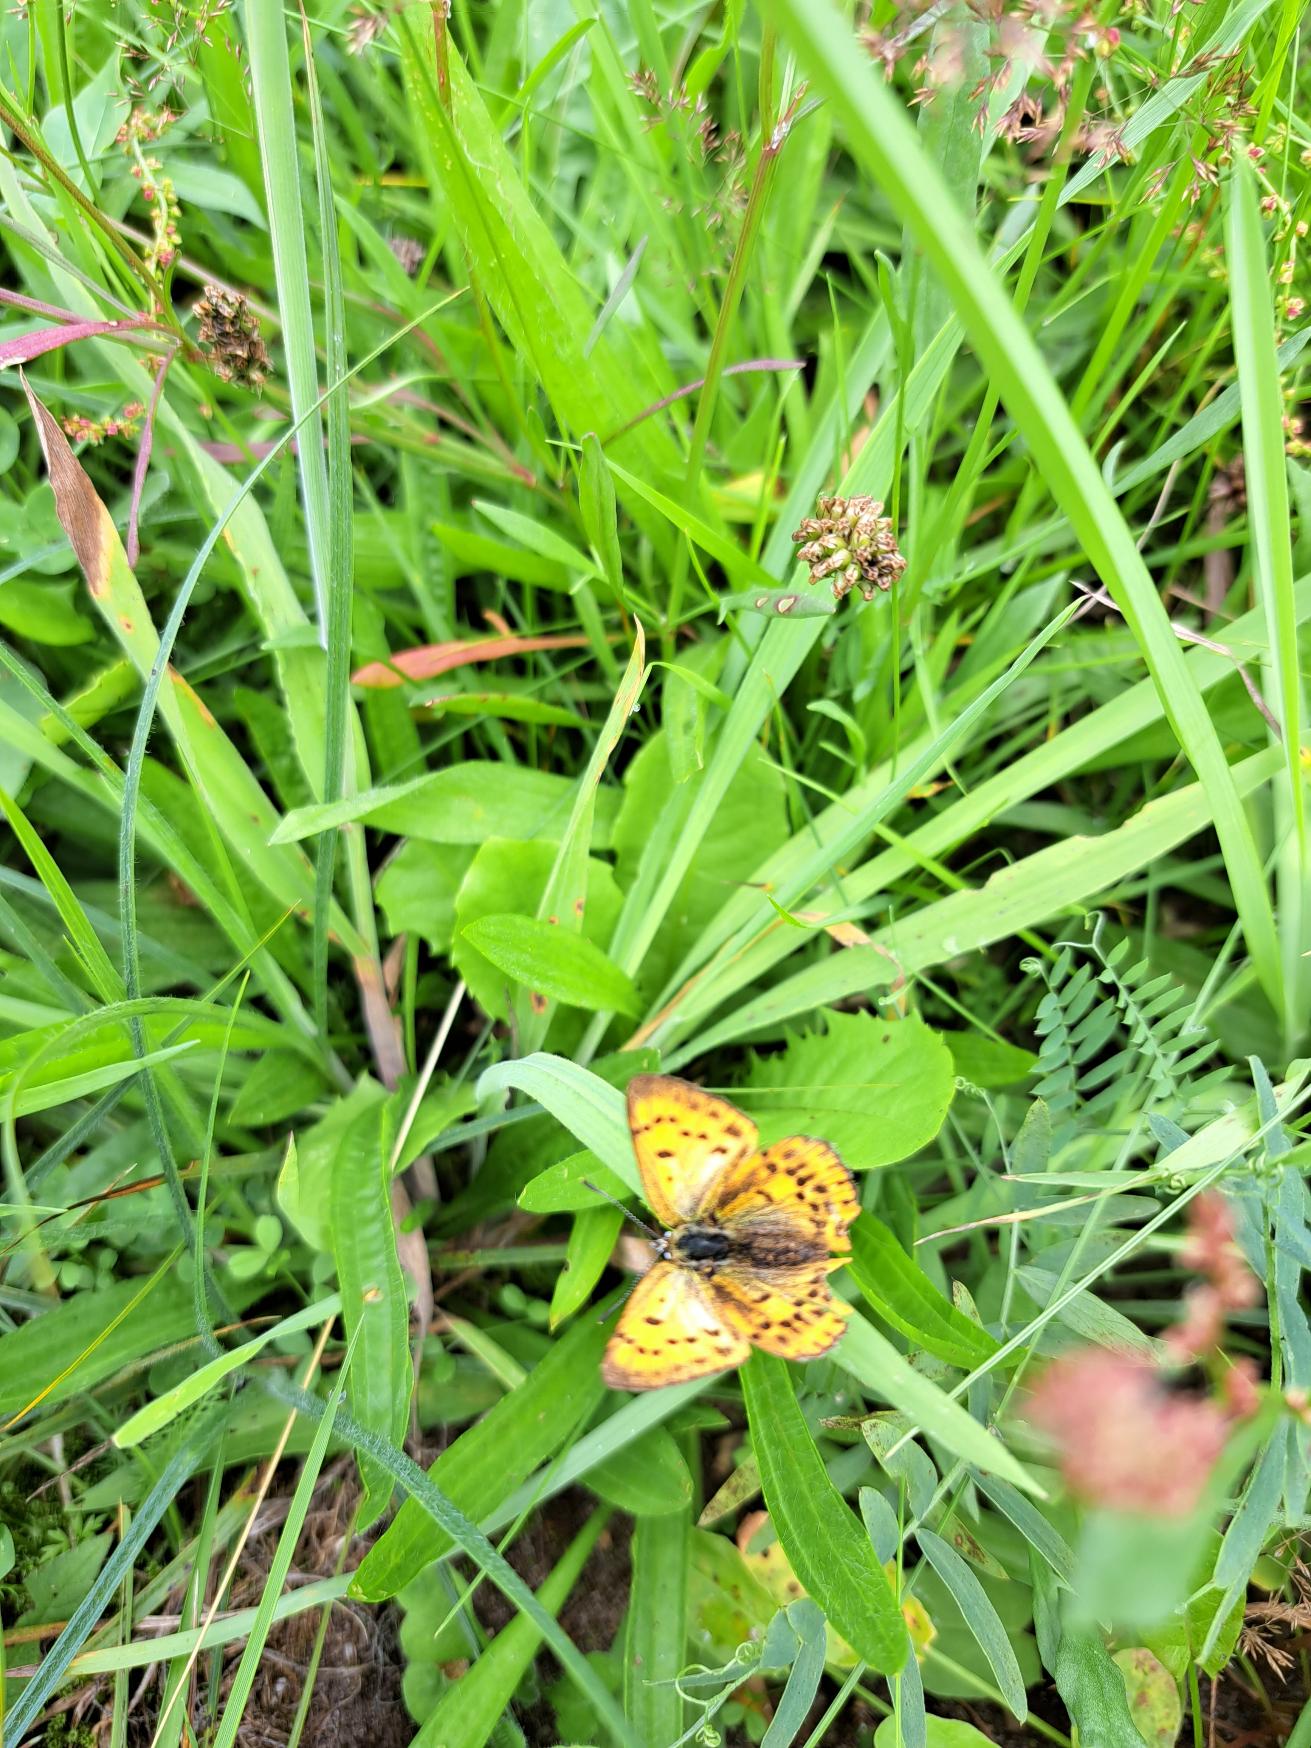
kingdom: Animalia
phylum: Arthropoda
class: Insecta
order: Lepidoptera
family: Lycaenidae
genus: Lycaena
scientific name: Lycaena virgaureae
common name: Dukatsommerfugl
